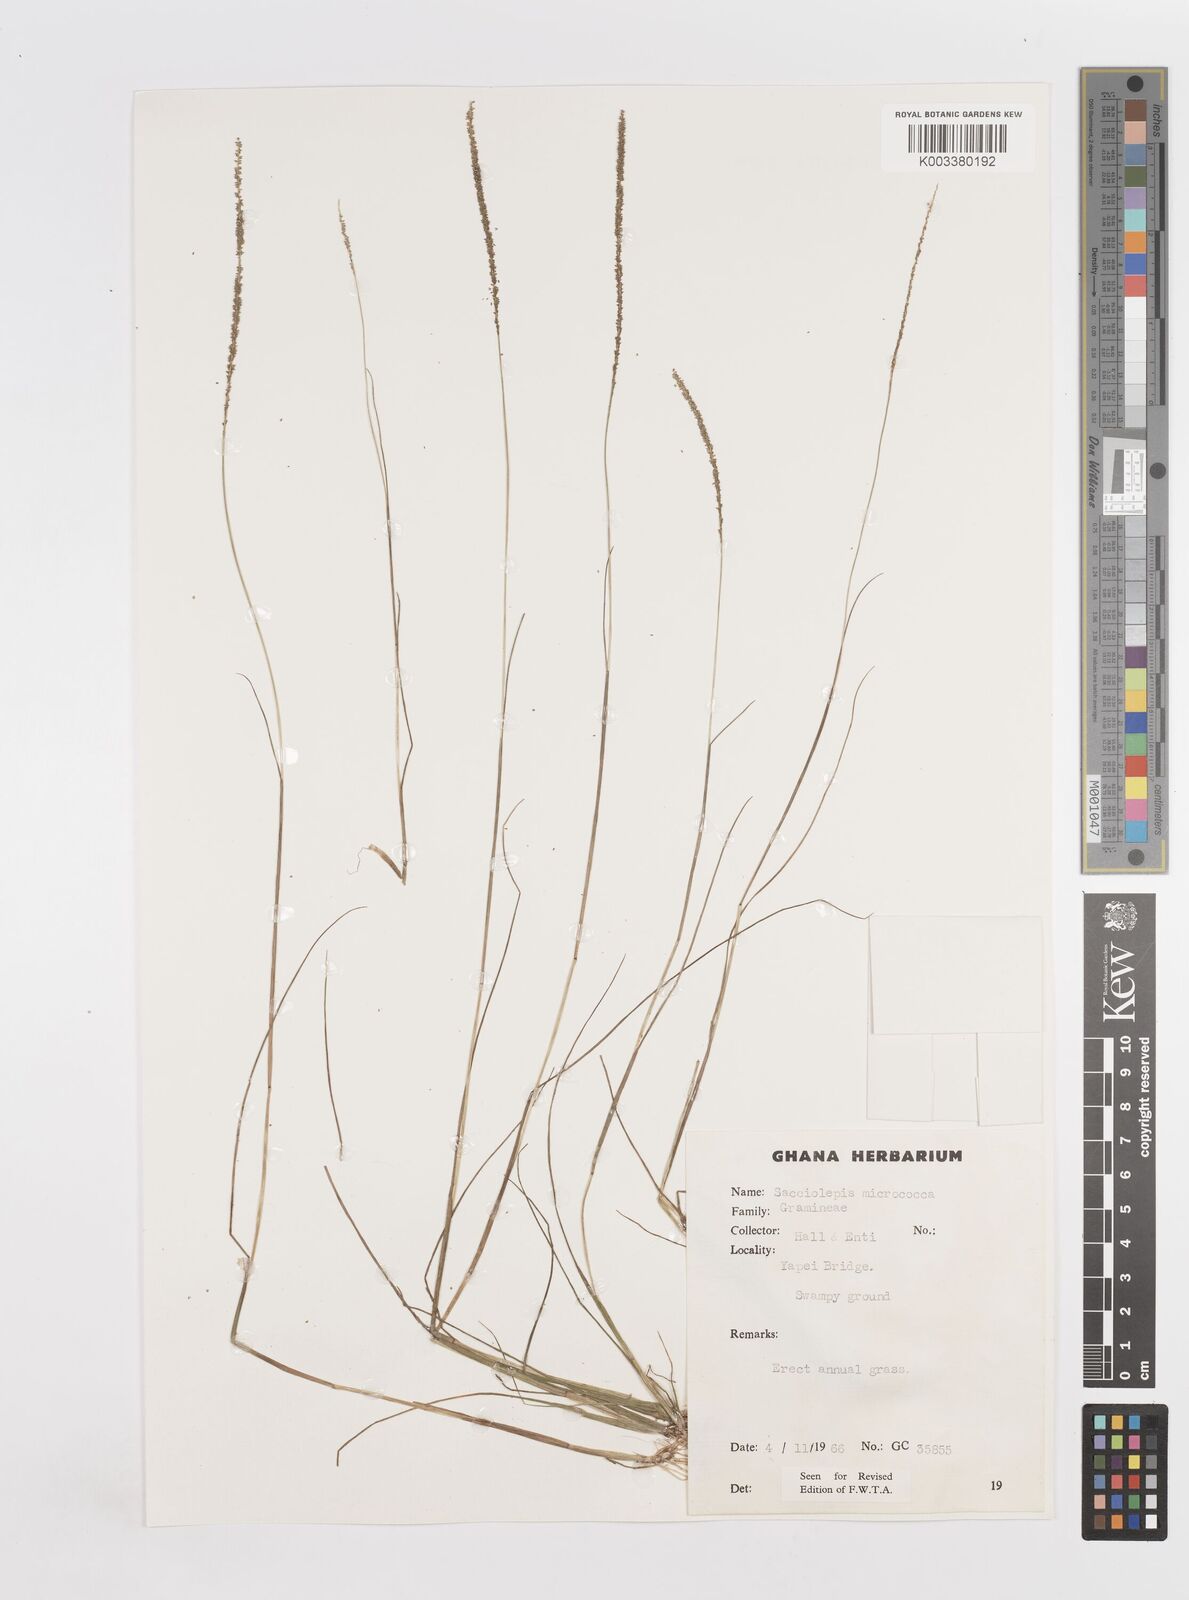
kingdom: Plantae
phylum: Tracheophyta
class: Liliopsida
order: Poales
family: Poaceae
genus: Sacciolepis
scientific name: Sacciolepis micrococca
